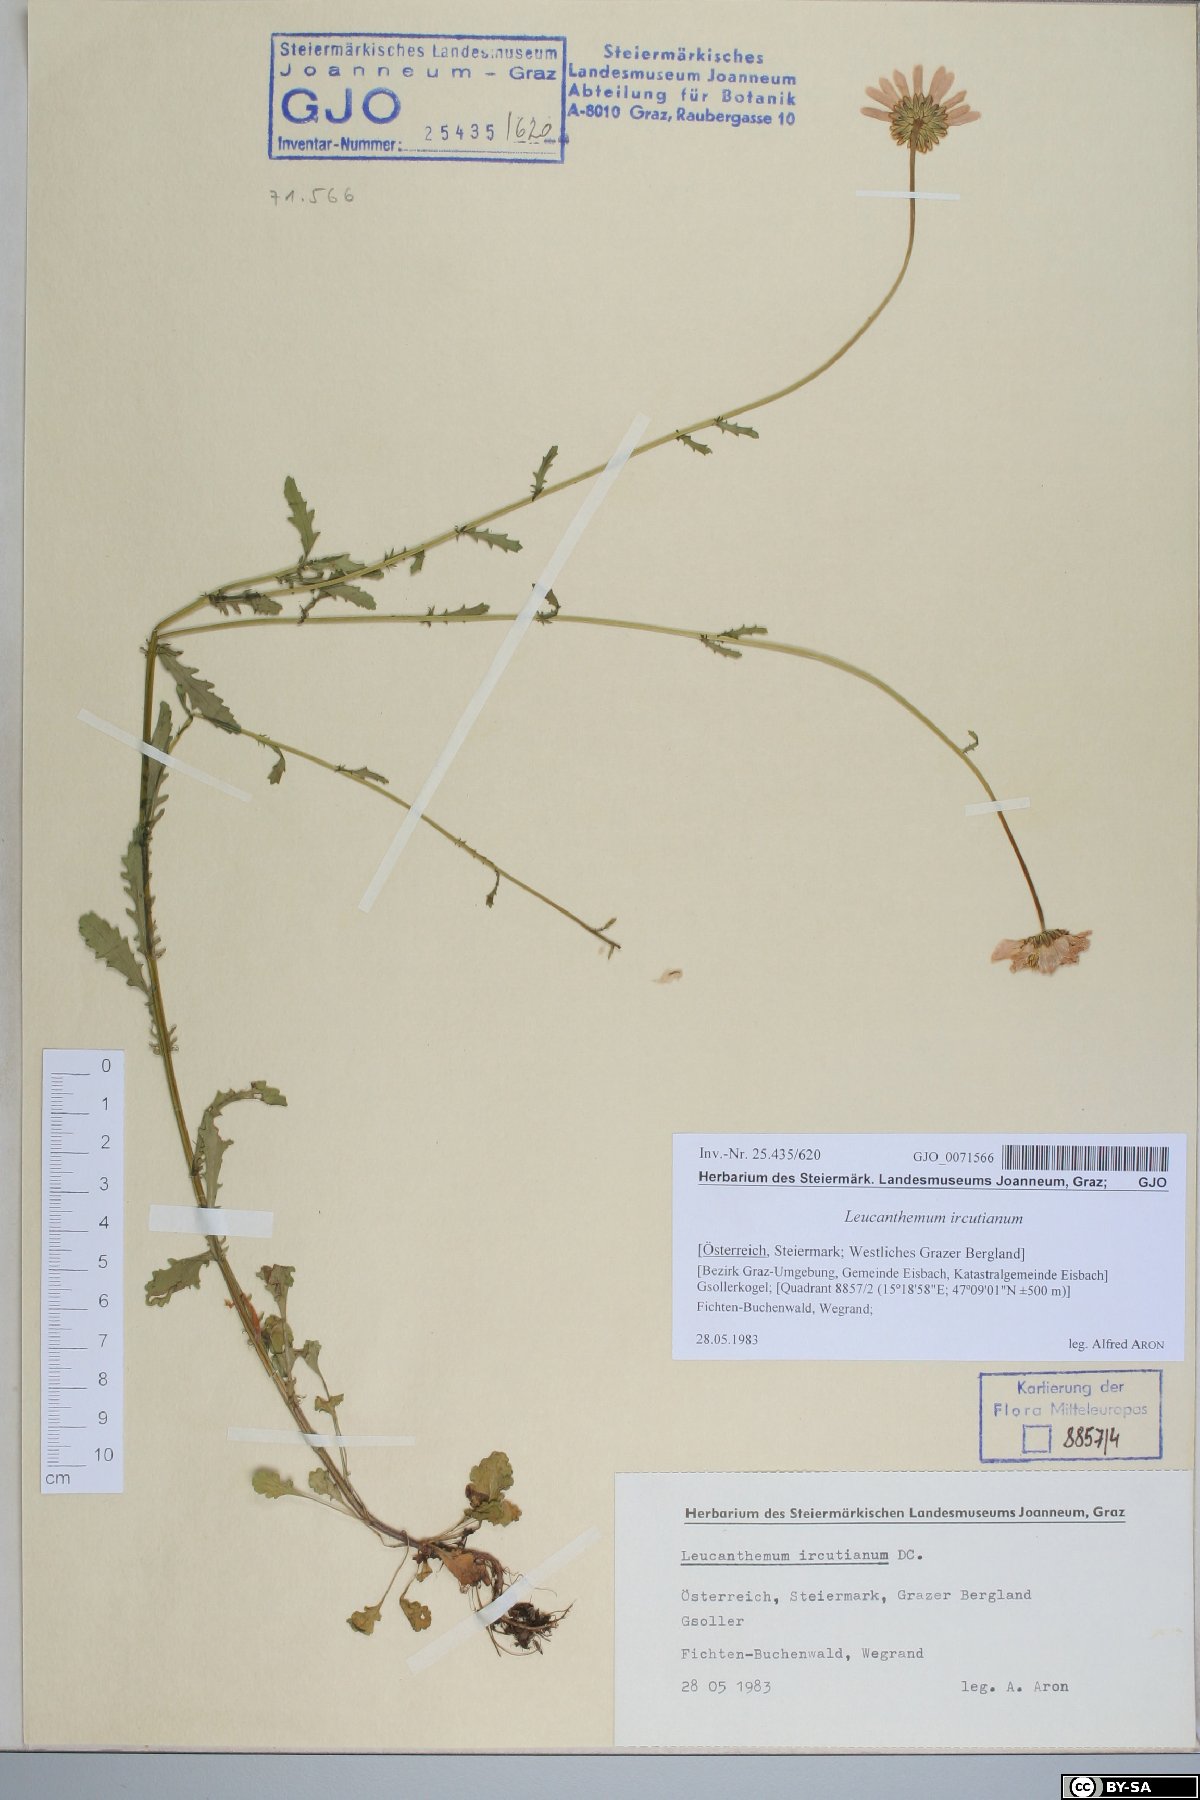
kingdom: Plantae
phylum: Tracheophyta
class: Magnoliopsida
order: Asterales
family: Asteraceae
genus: Leucanthemum
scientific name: Leucanthemum ircutianum
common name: Daisy
